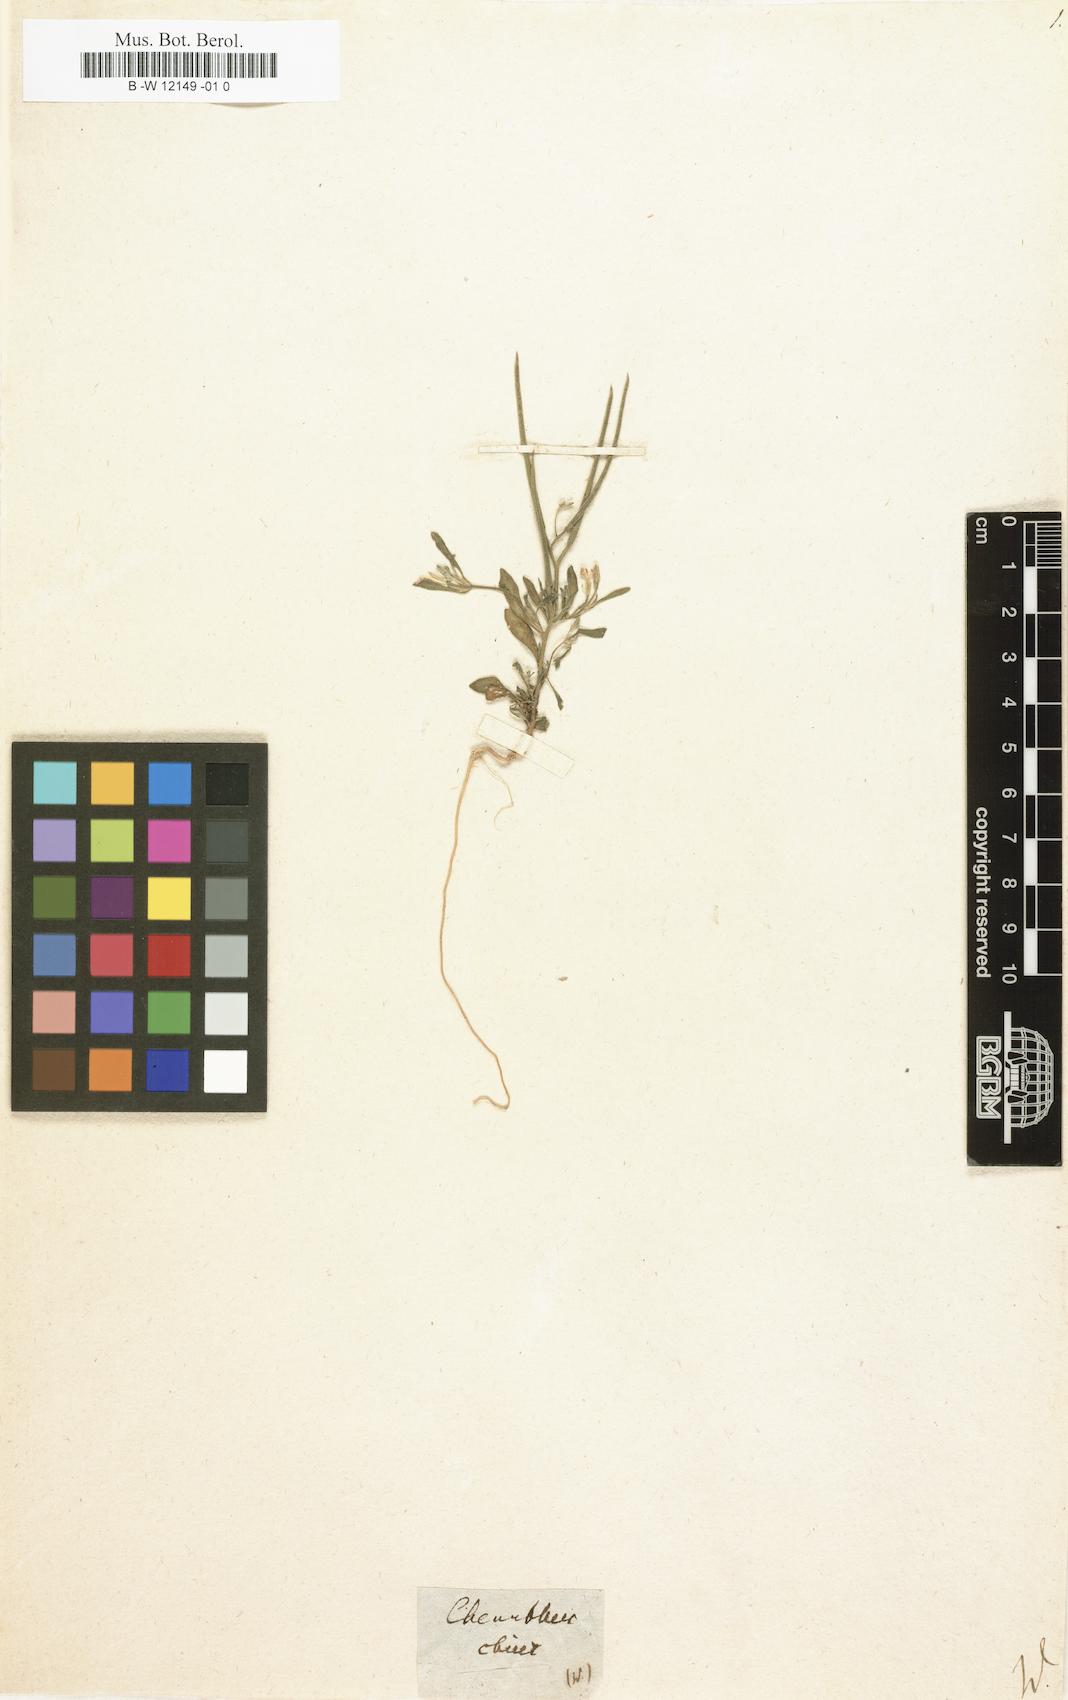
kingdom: Plantae
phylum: Tracheophyta
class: Magnoliopsida
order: Brassicales
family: Brassicaceae
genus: Hesperis
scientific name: Hesperis
